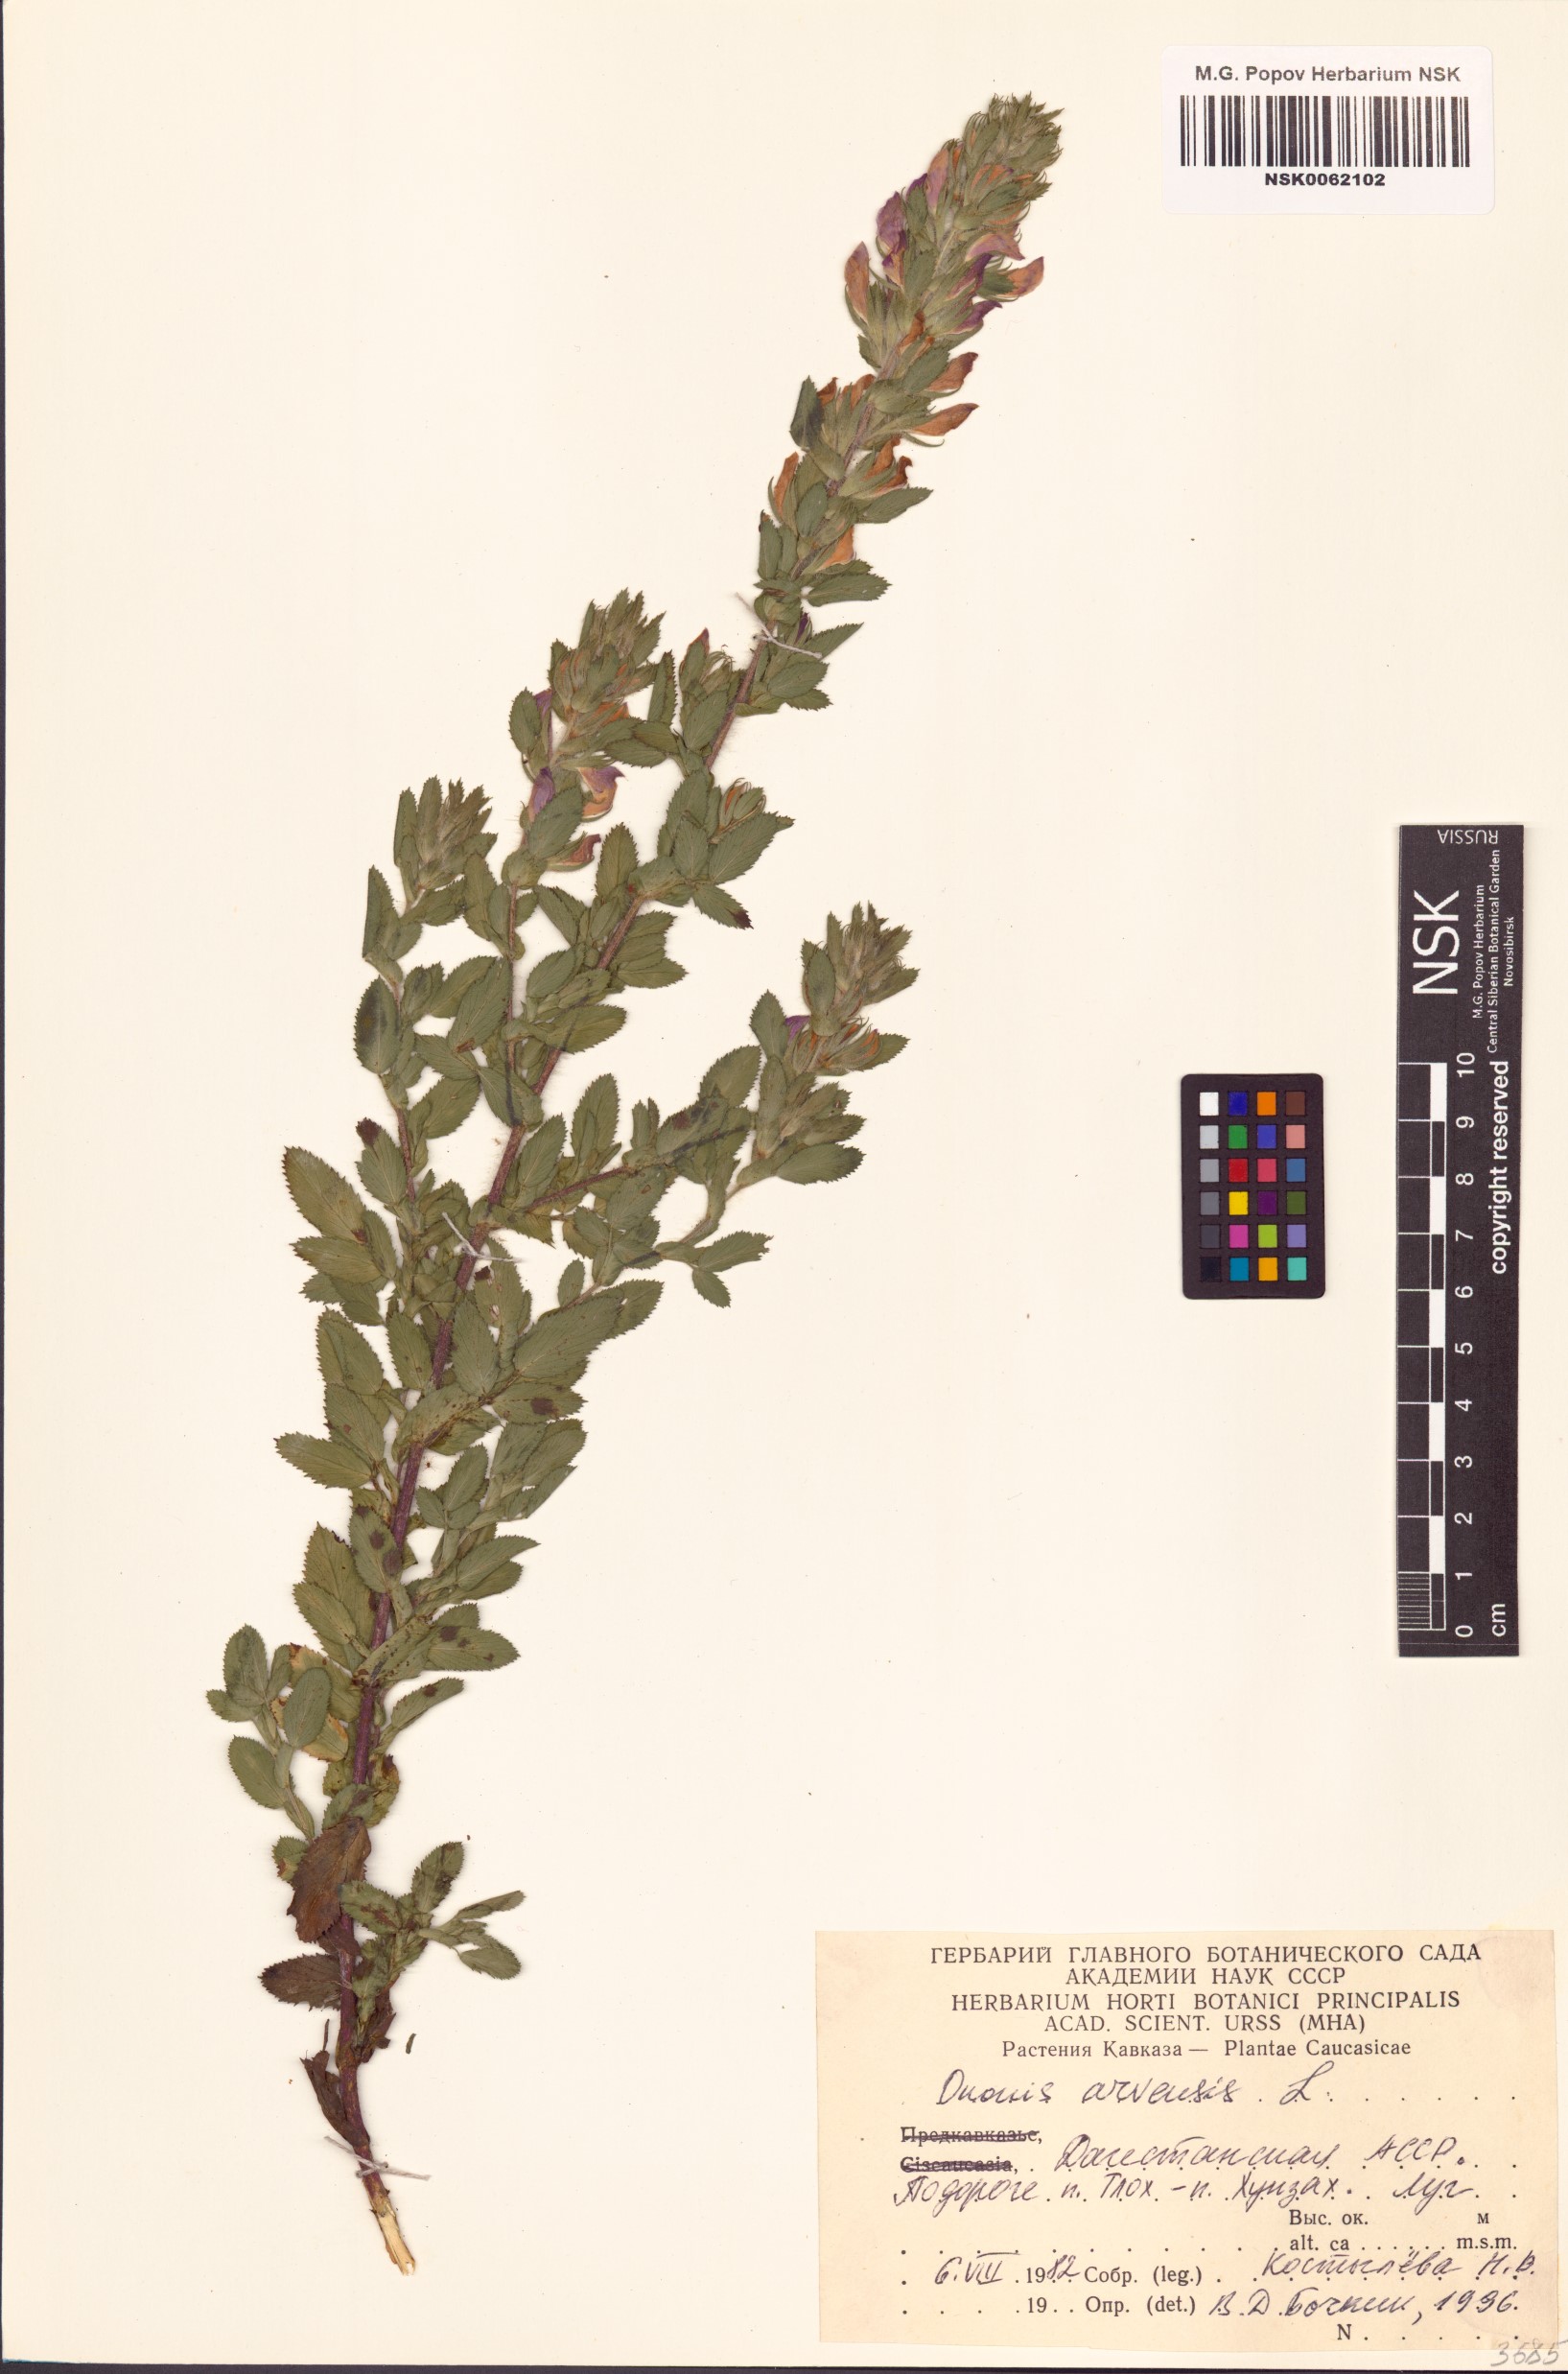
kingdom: Plantae
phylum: Tracheophyta
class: Magnoliopsida
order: Fabales
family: Fabaceae
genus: Ononis
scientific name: Ononis arvensis
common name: Field restharrow
